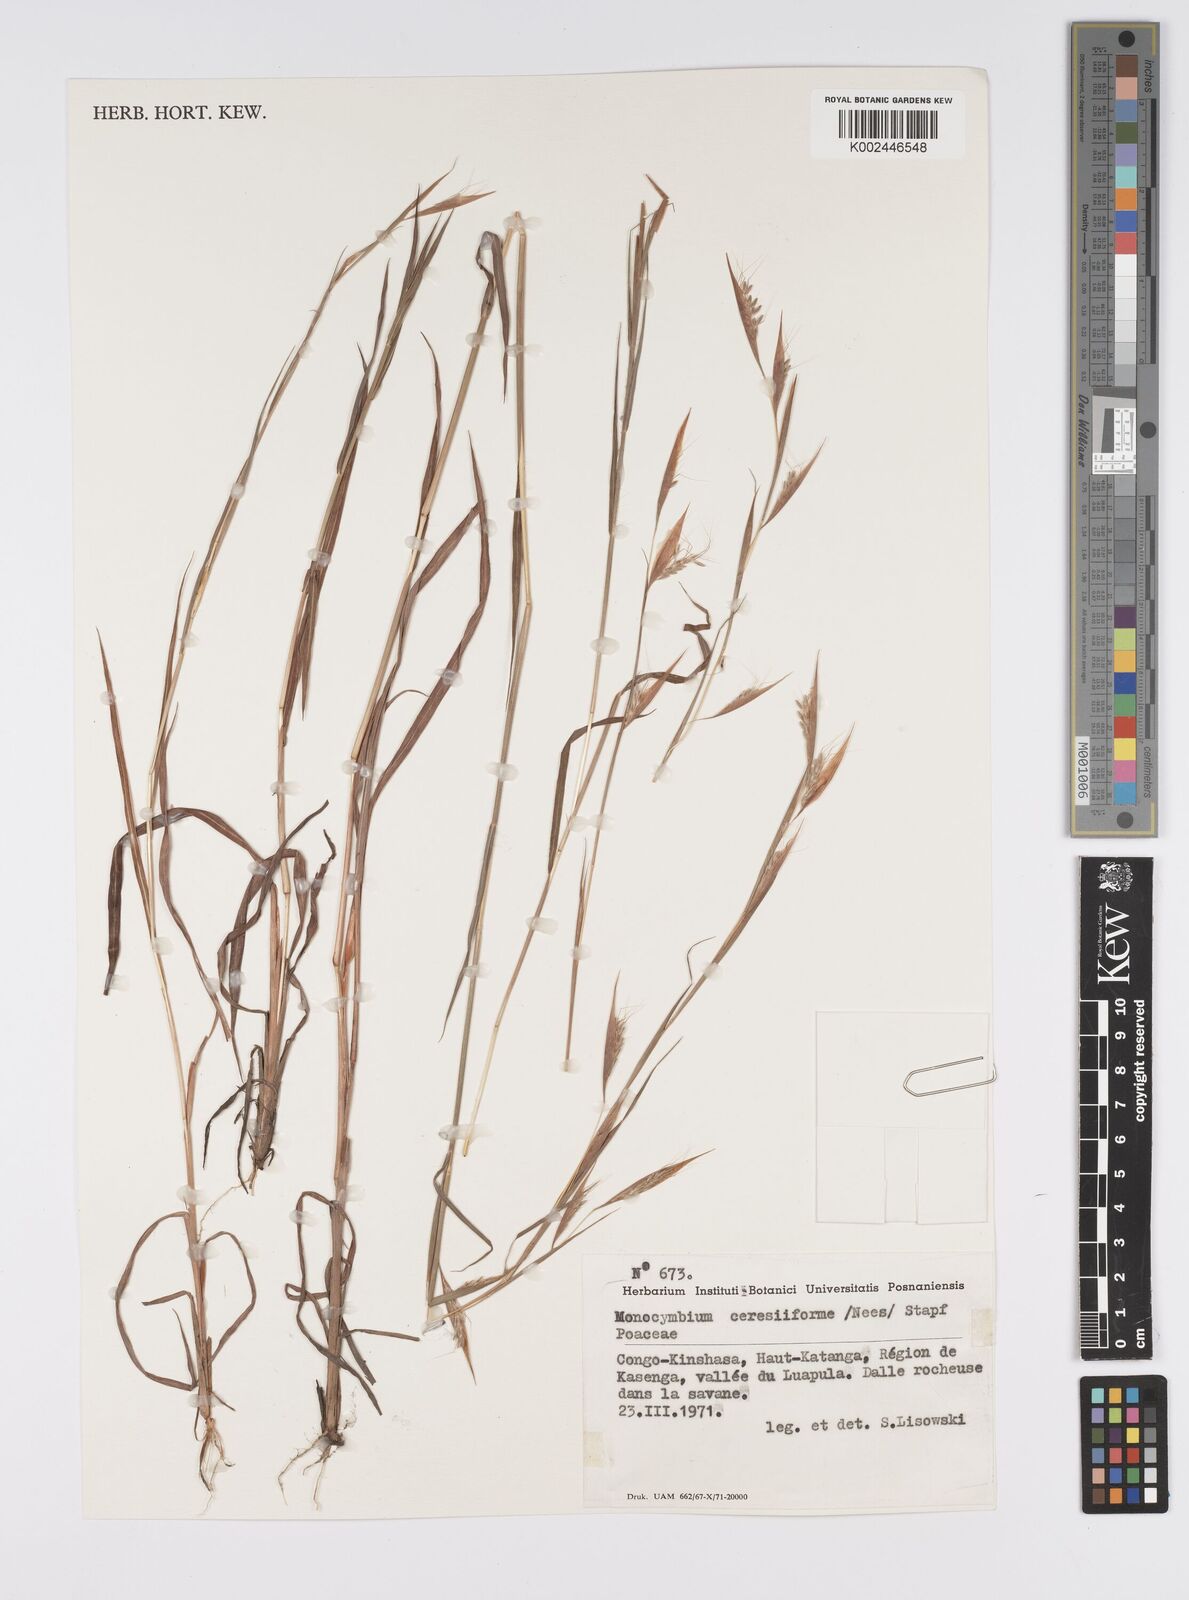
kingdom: Plantae
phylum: Tracheophyta
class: Liliopsida
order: Poales
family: Poaceae
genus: Monocymbium
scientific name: Monocymbium ceresiiforme
